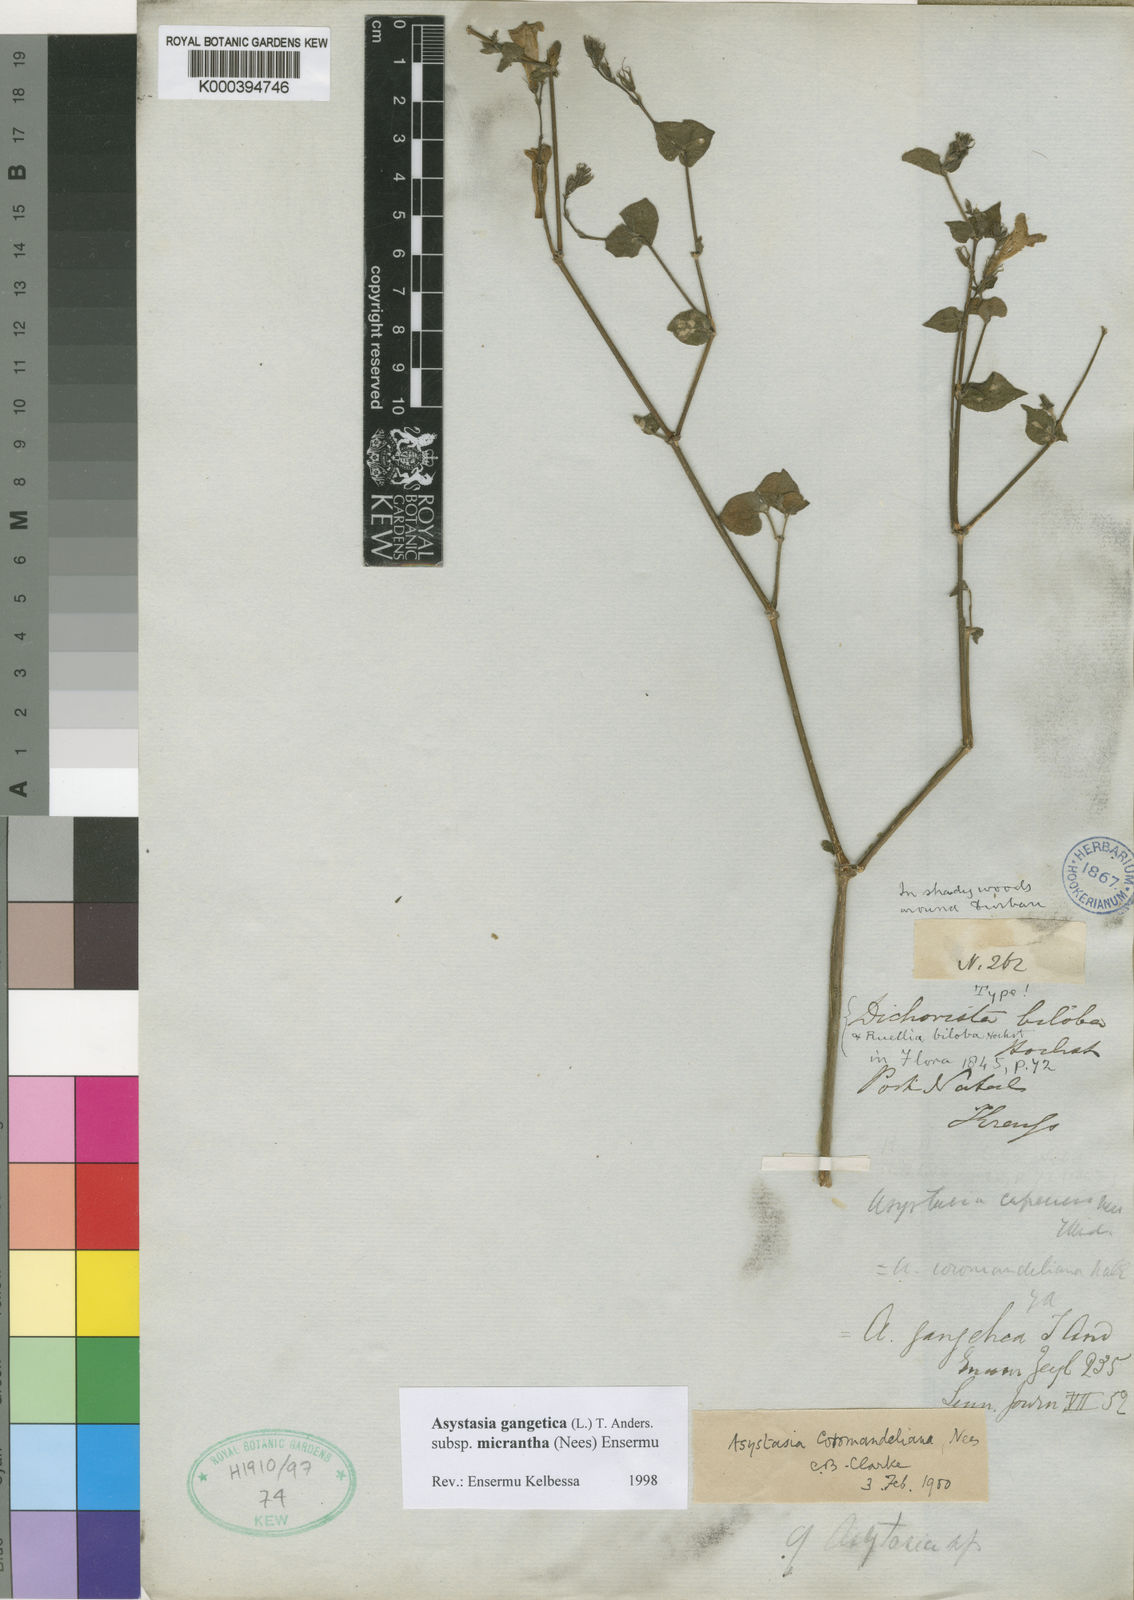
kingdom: Plantae
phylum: Tracheophyta
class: Magnoliopsida
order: Lamiales
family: Acanthaceae
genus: Asystasia
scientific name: Asystasia gangetica
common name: Chinese violet
